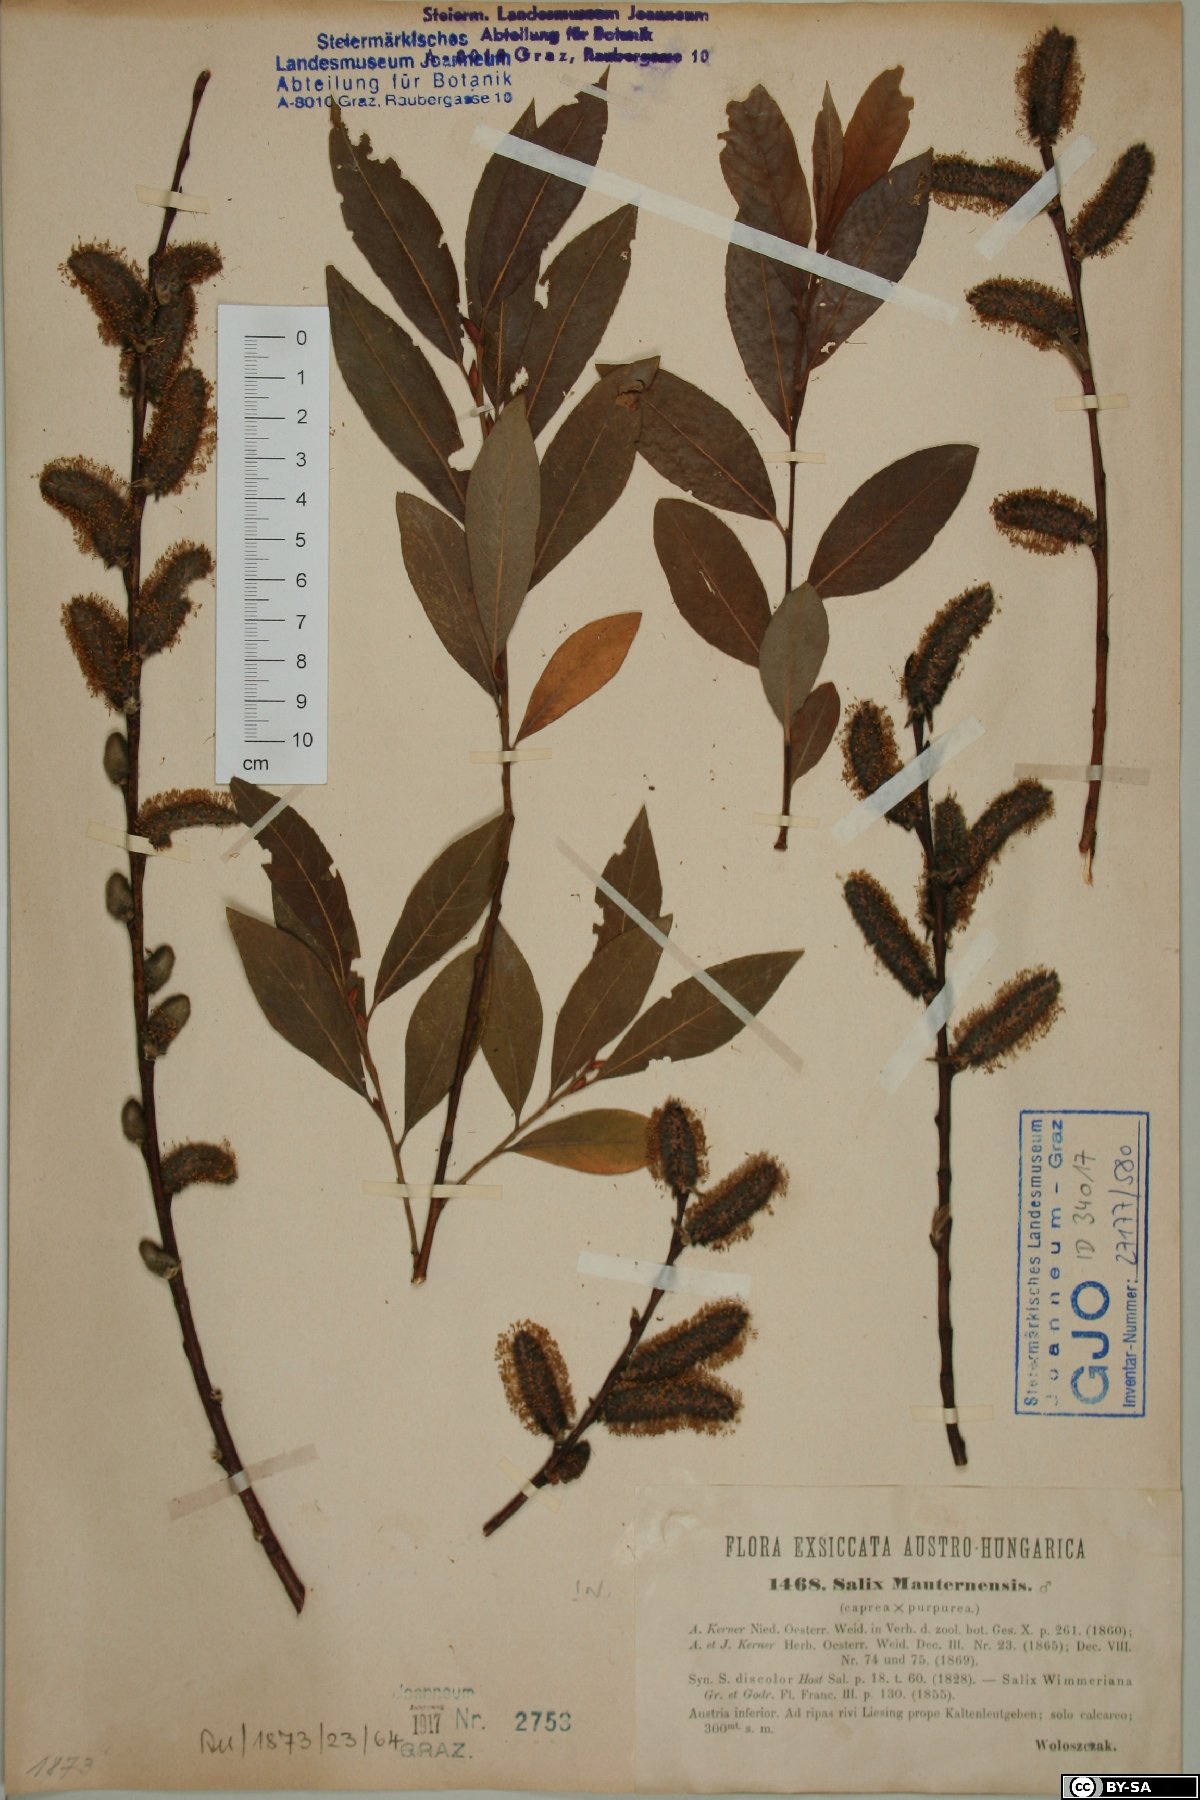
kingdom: Plantae
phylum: Tracheophyta
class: Magnoliopsida
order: Malpighiales
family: Salicaceae
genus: Salix
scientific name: Salix wimmeriana
